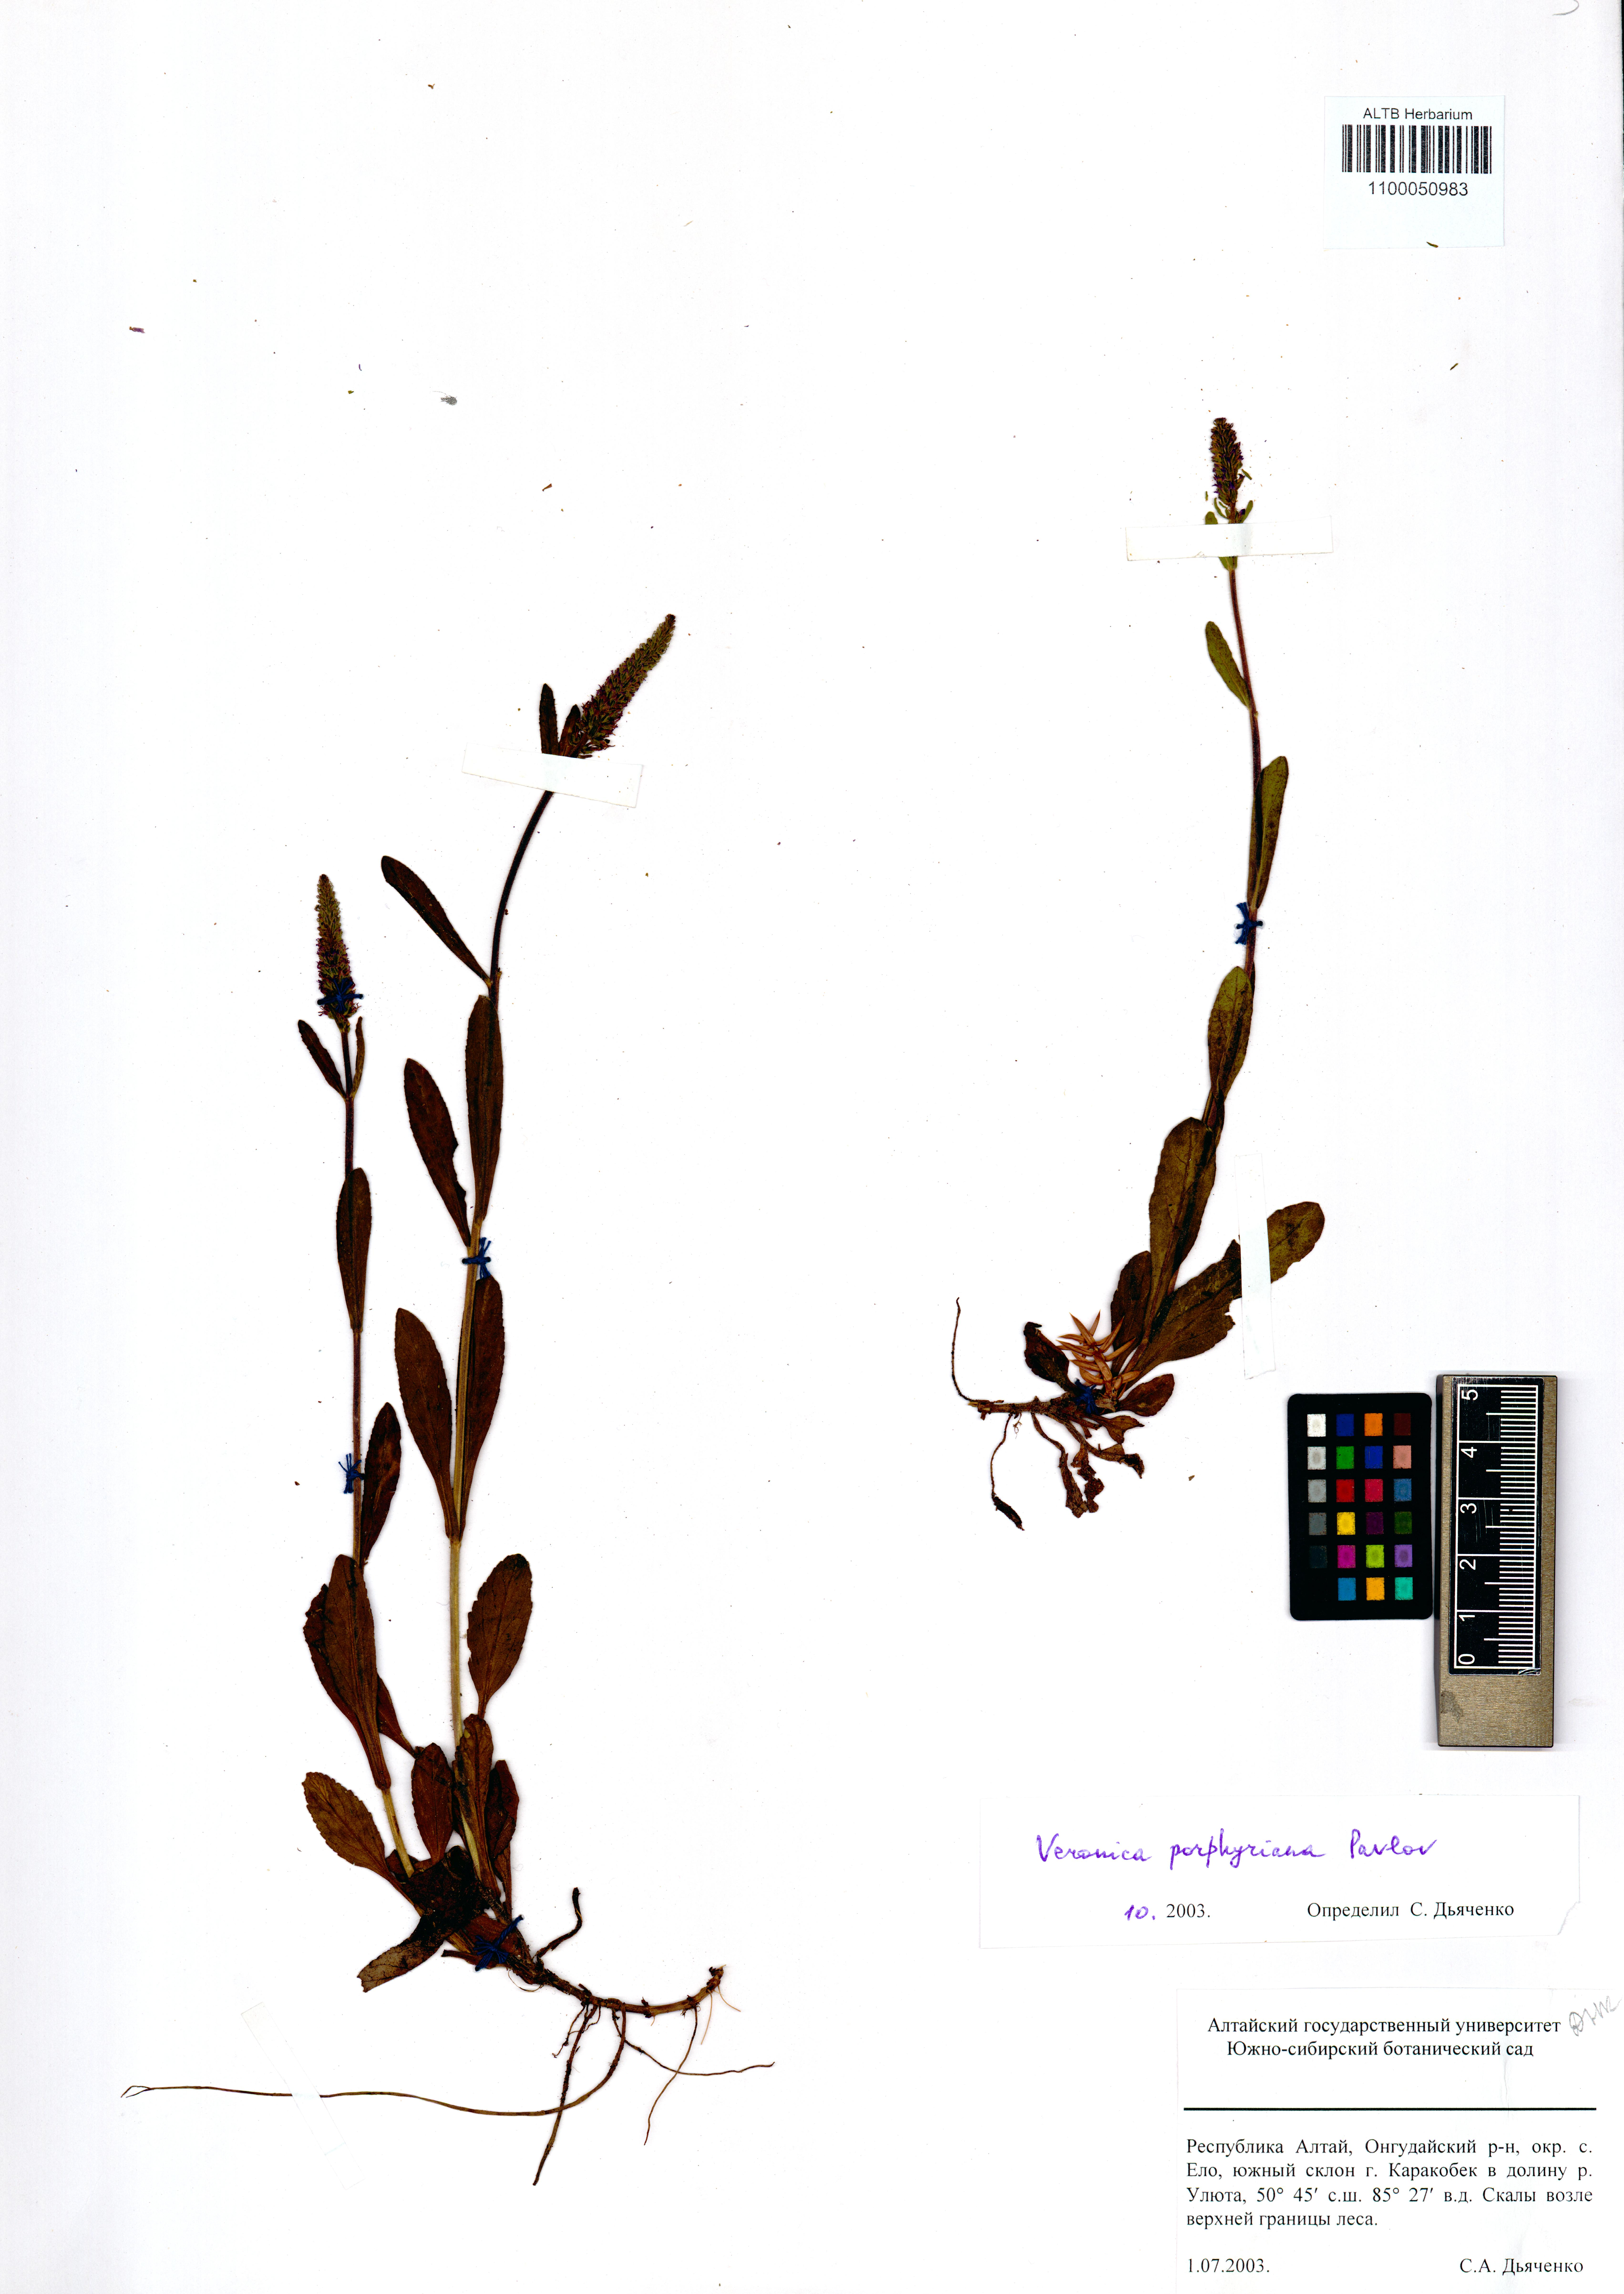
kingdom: Plantae
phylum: Tracheophyta
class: Magnoliopsida
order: Lamiales
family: Plantaginaceae
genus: Veronica
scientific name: Veronica porphyriana
